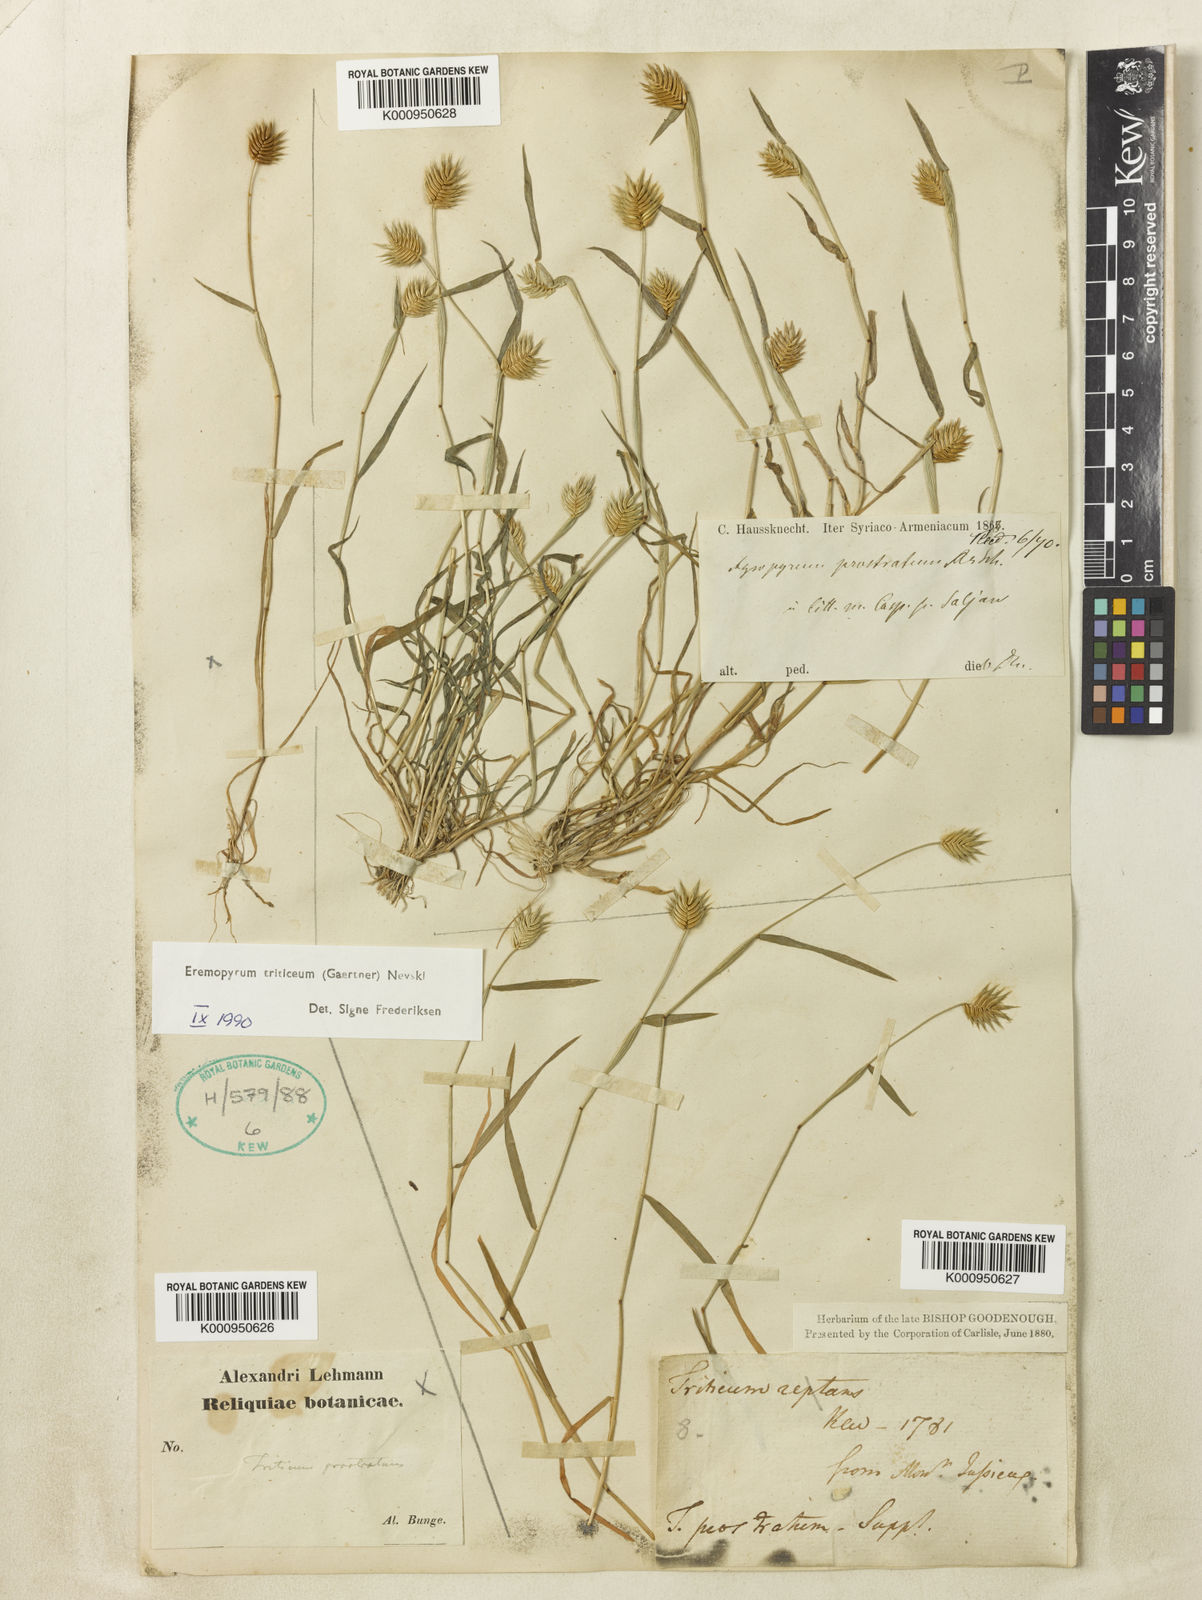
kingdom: Plantae
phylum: Tracheophyta
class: Liliopsida
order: Poales
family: Poaceae
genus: Eremopyrum
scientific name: Eremopyrum triticeum
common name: Annual wheatgrass
